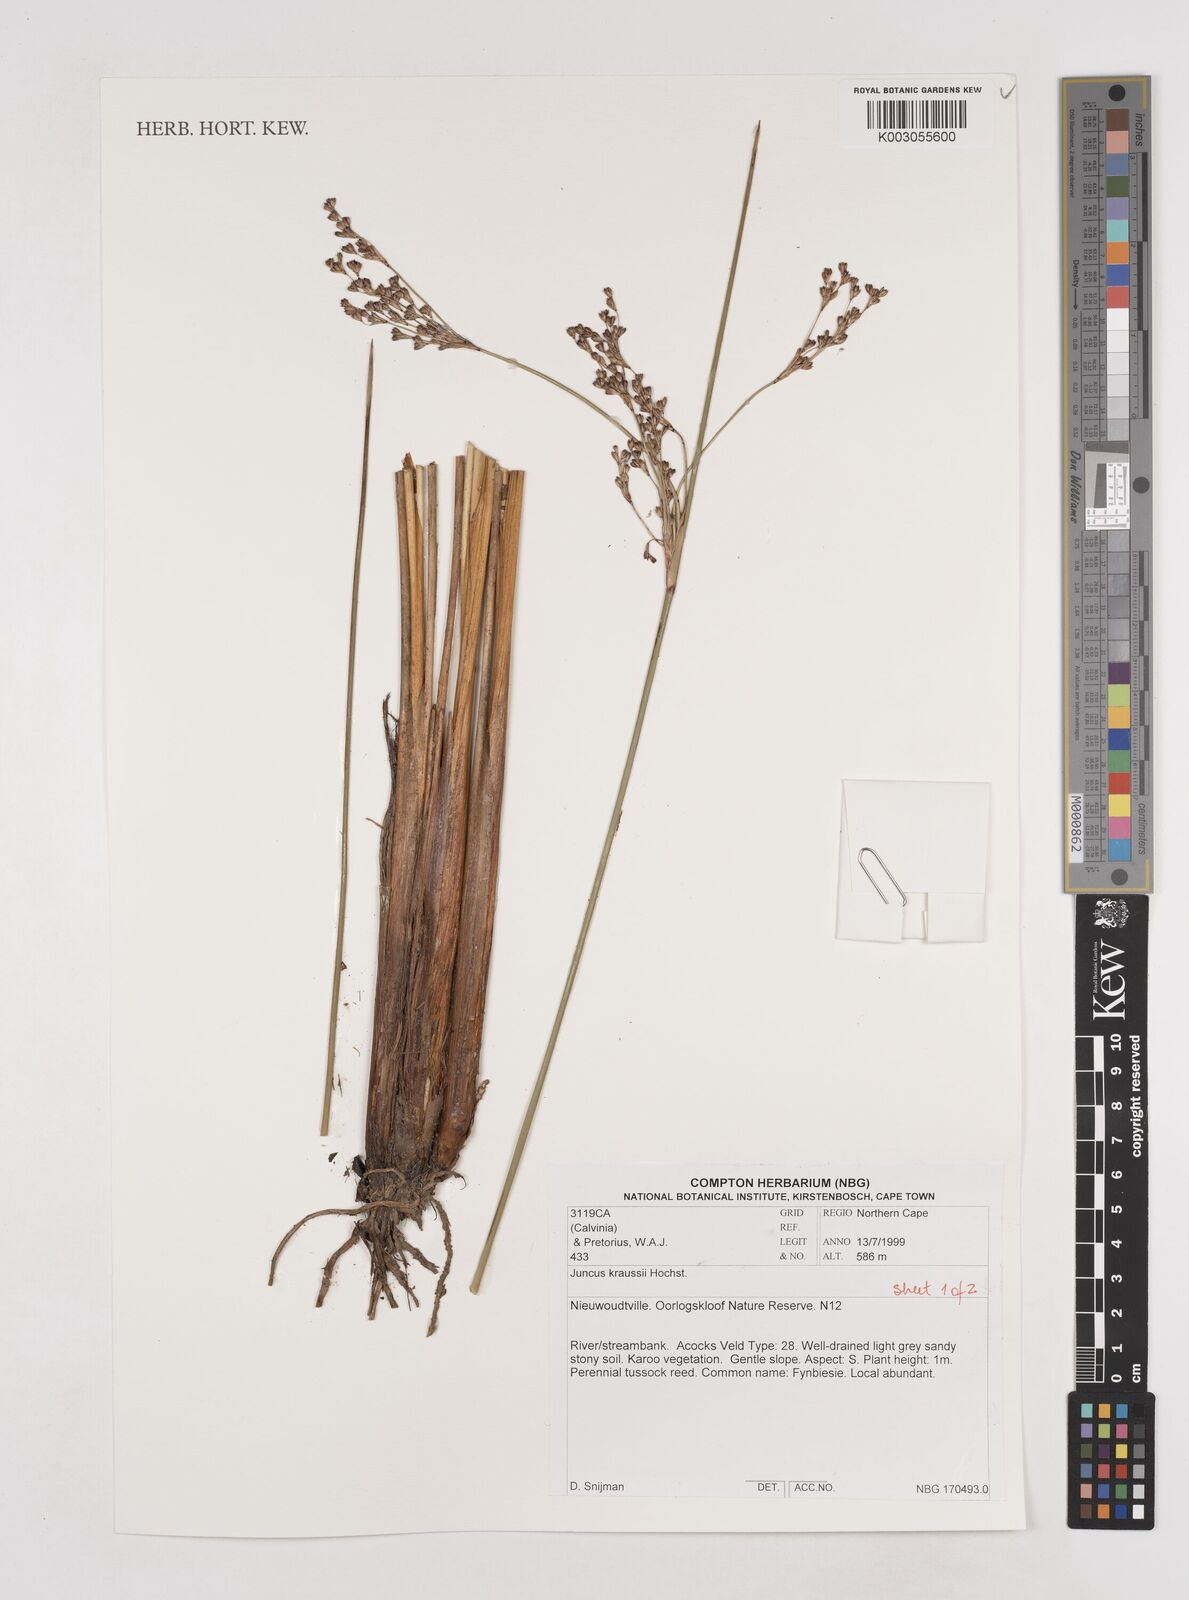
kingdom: Plantae
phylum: Tracheophyta
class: Liliopsida
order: Poales
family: Juncaceae
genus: Juncus
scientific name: Juncus kraussii
